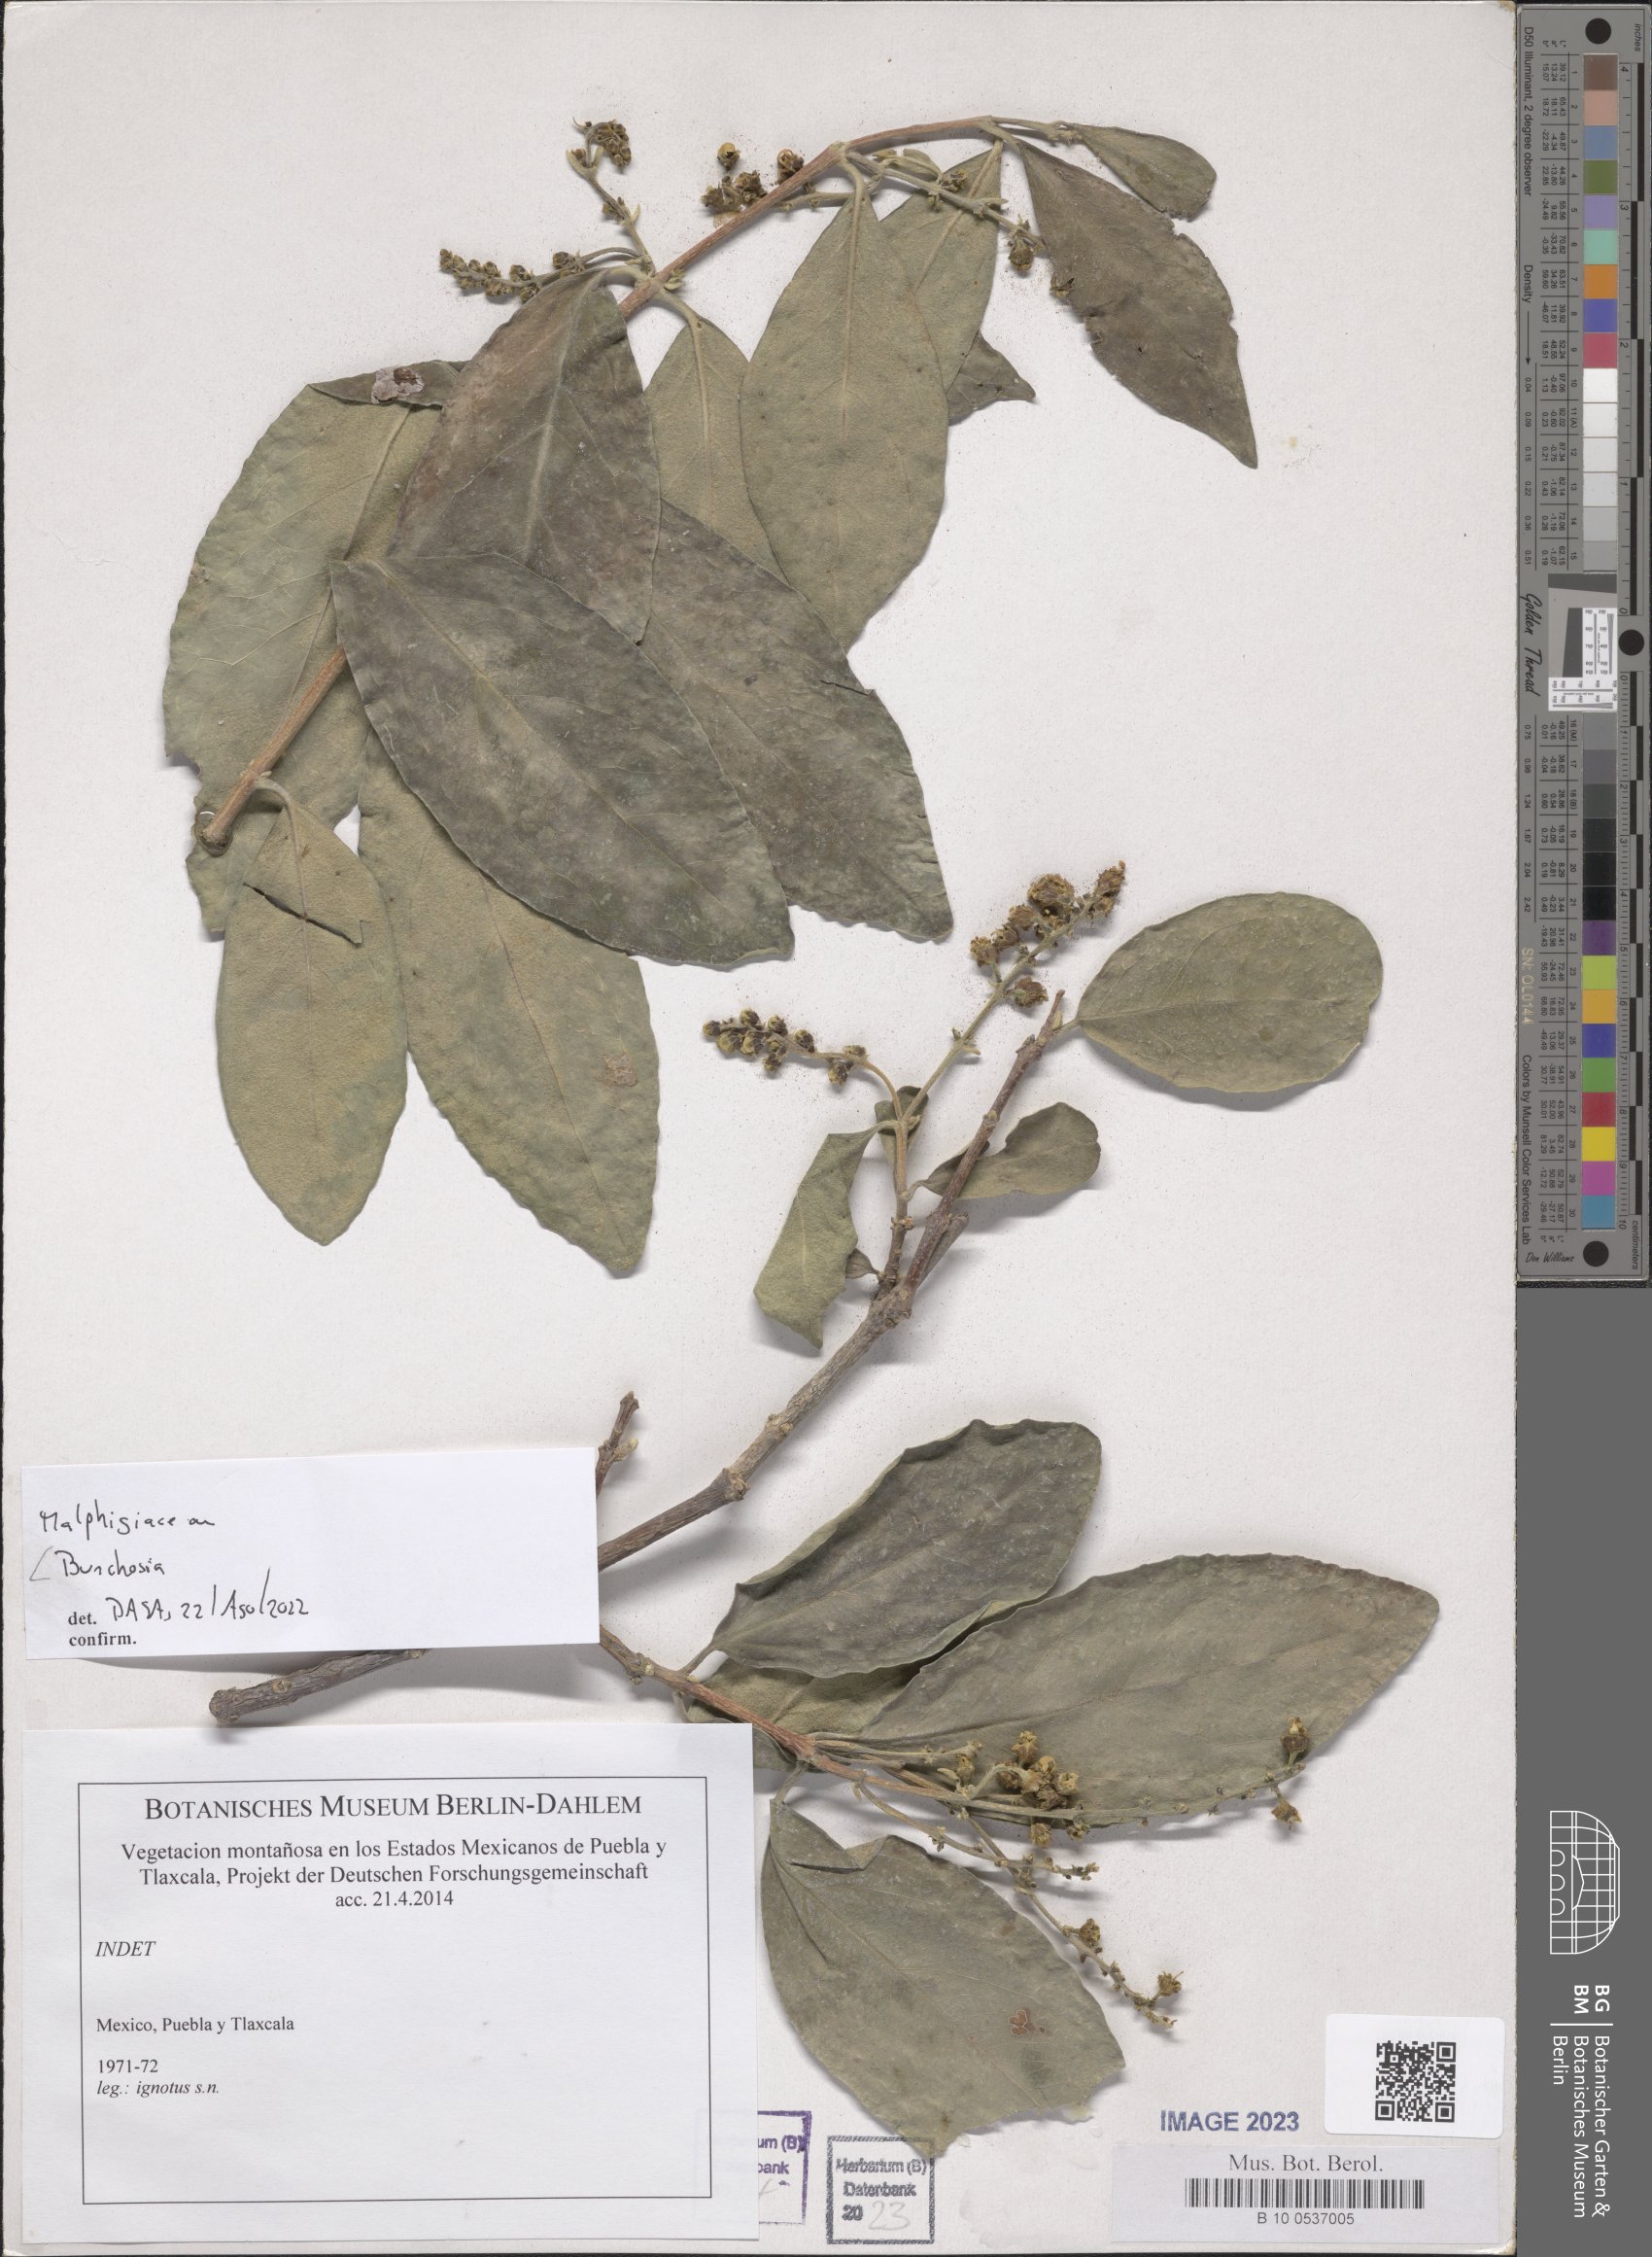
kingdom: Plantae
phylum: Tracheophyta
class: Magnoliopsida
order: Malpighiales
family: Malpighiaceae
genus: Bunchosia
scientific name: Bunchosia
